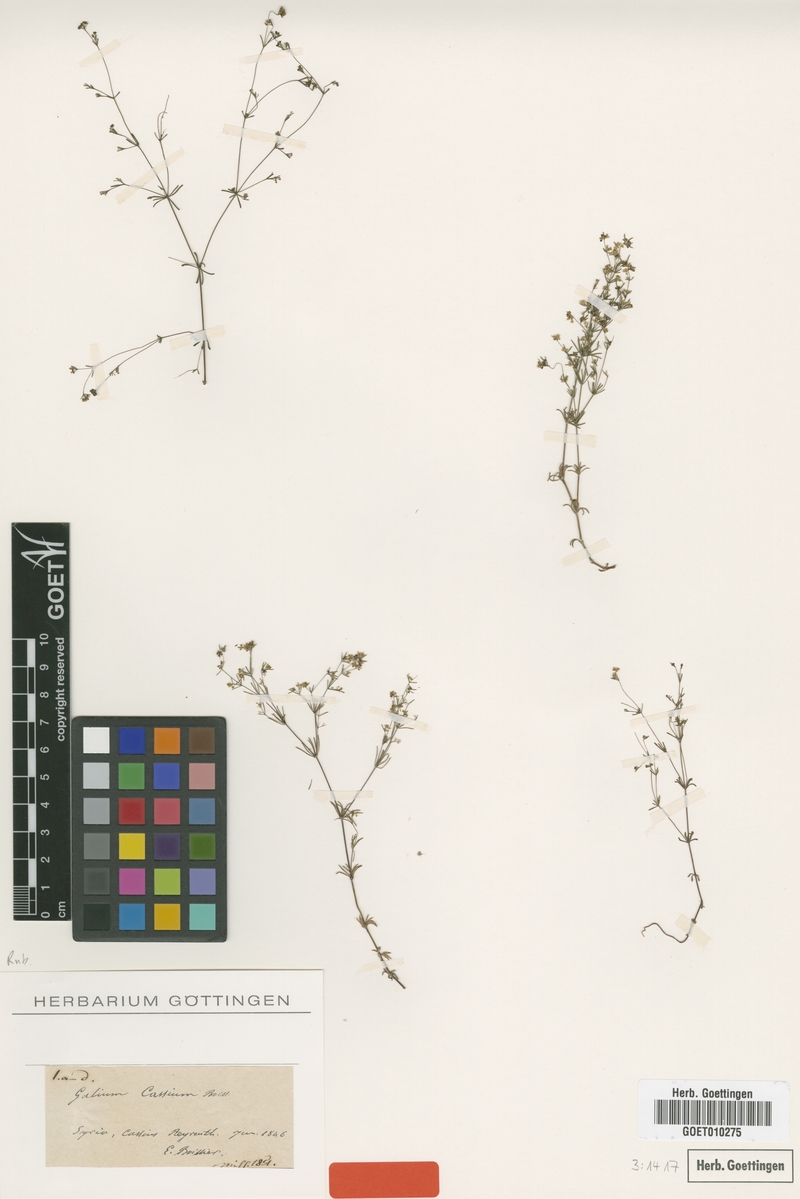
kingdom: Plantae
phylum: Tracheophyta
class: Magnoliopsida
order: Gentianales
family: Rubiaceae
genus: Galium
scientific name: Galium cassium
